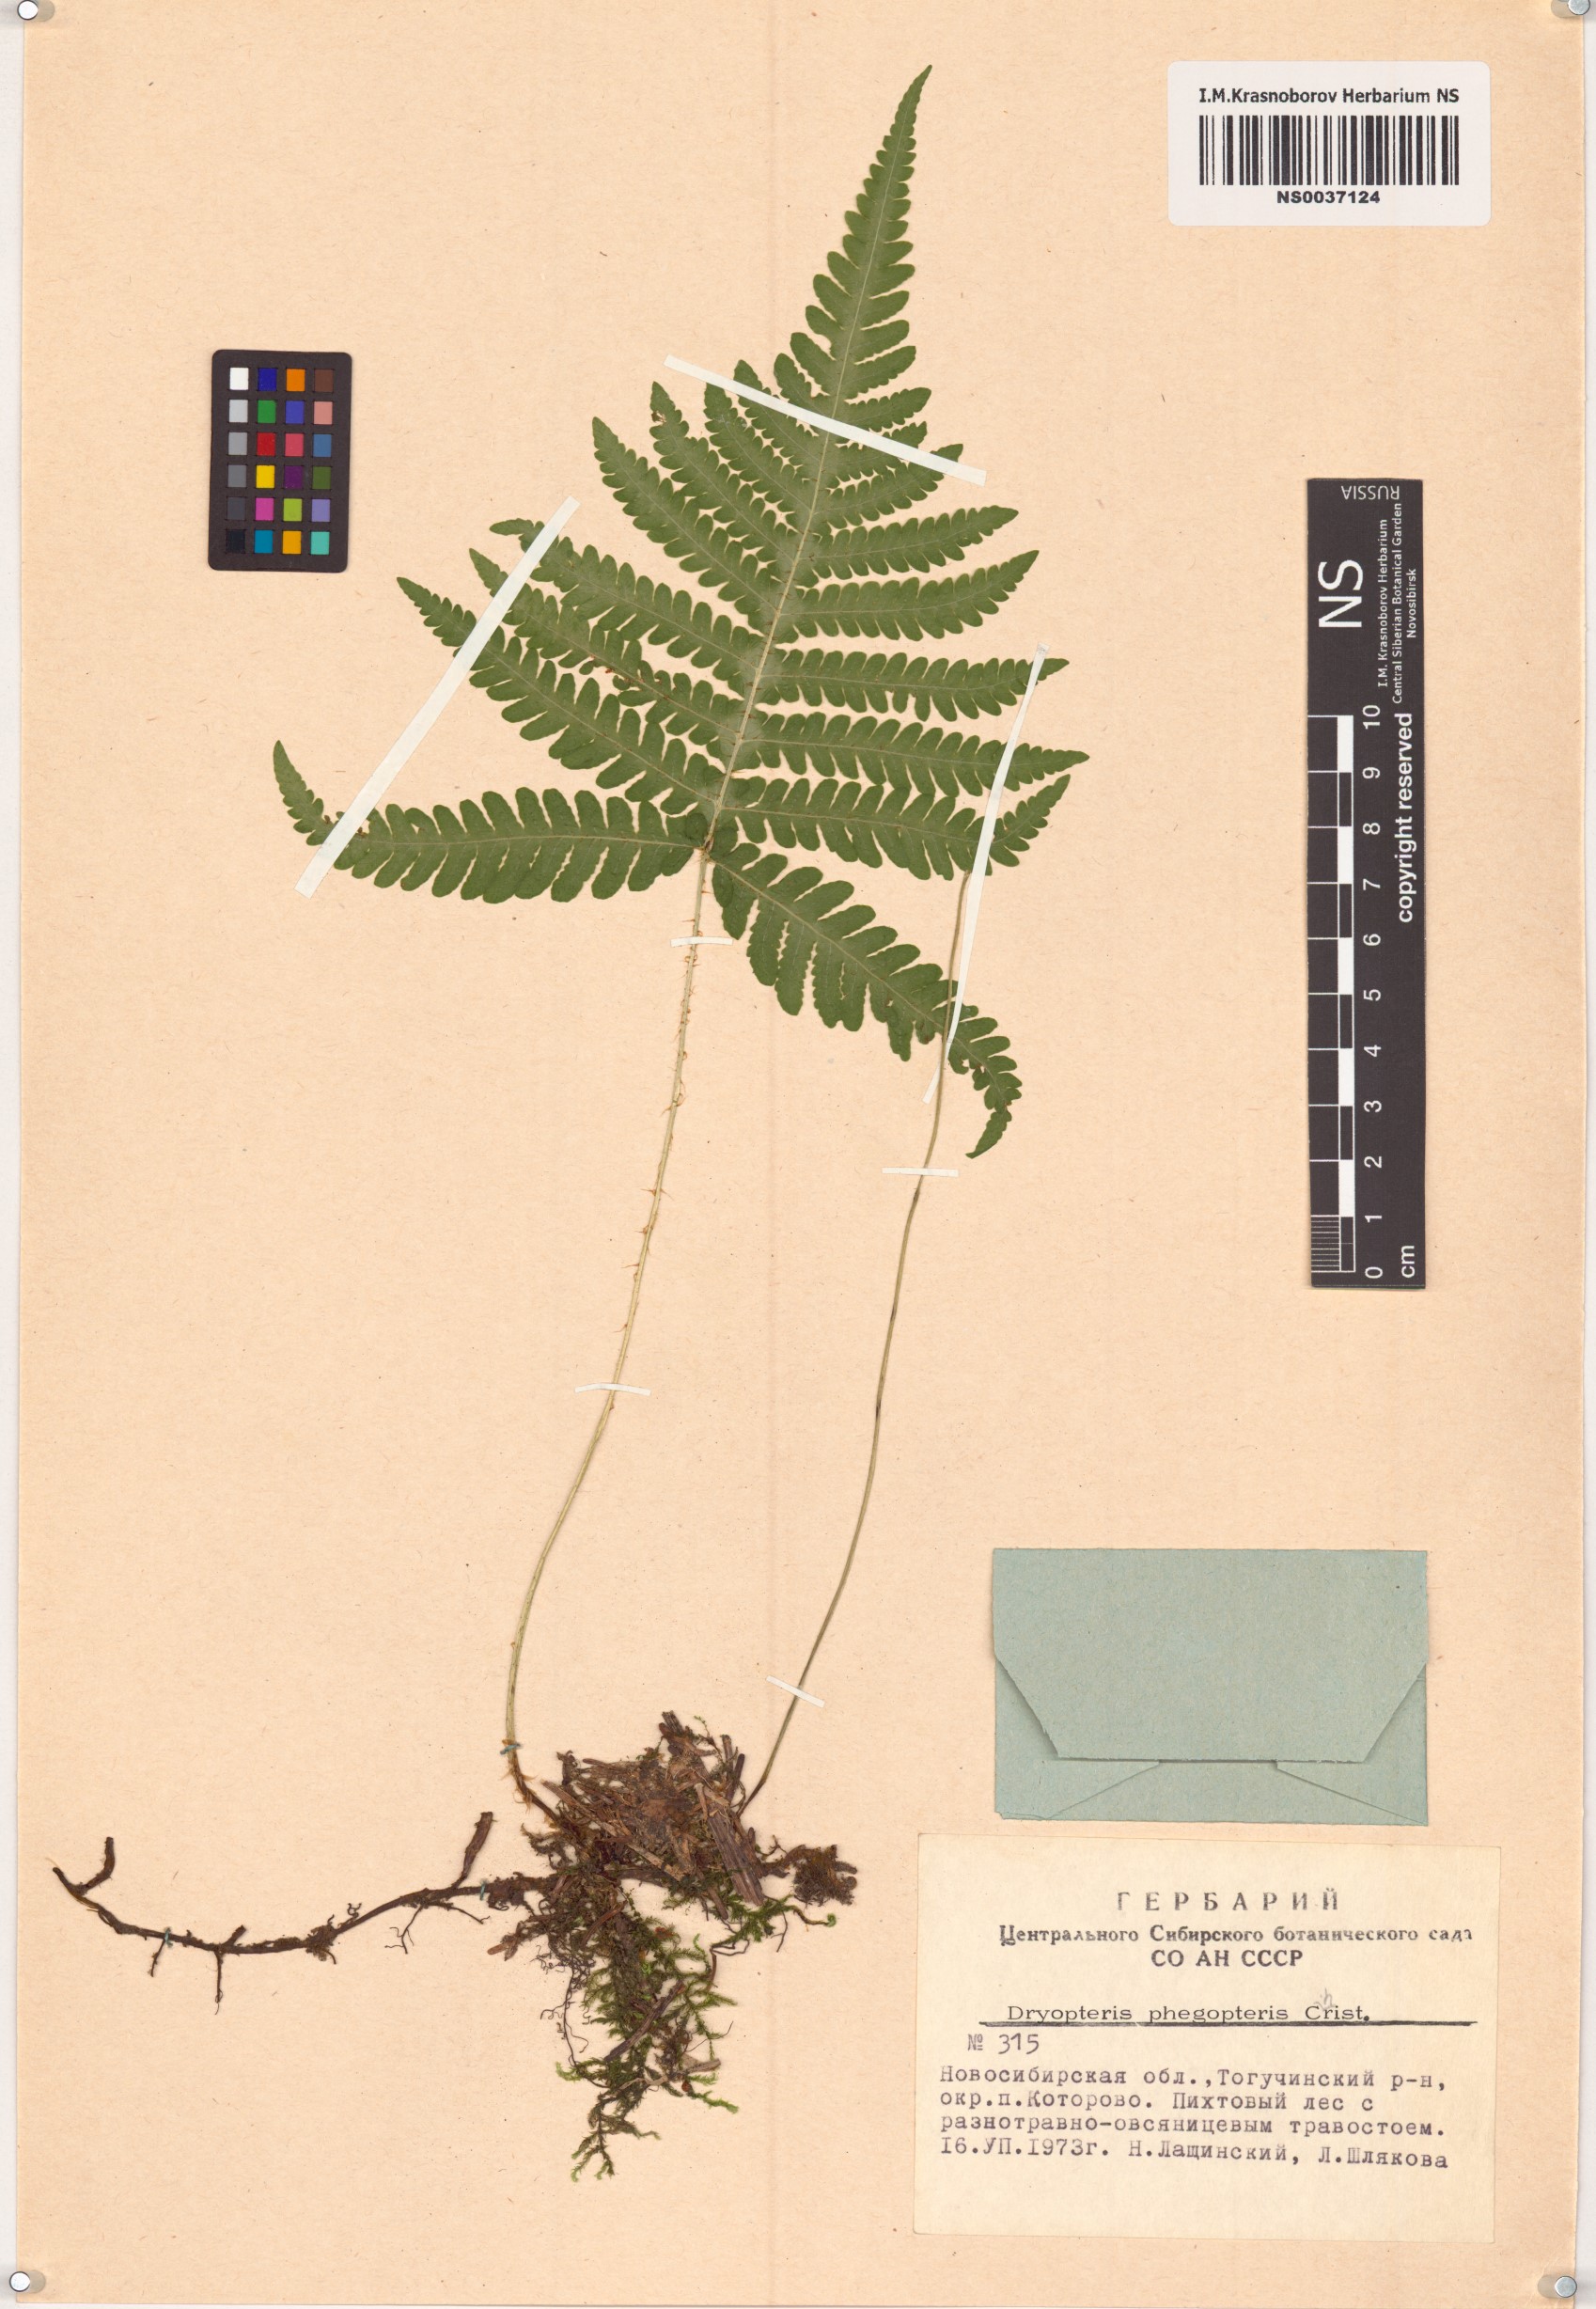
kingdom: Plantae
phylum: Tracheophyta
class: Polypodiopsida
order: Polypodiales
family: Thelypteridaceae
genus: Phegopteris
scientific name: Phegopteris connectilis
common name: Beech fern
